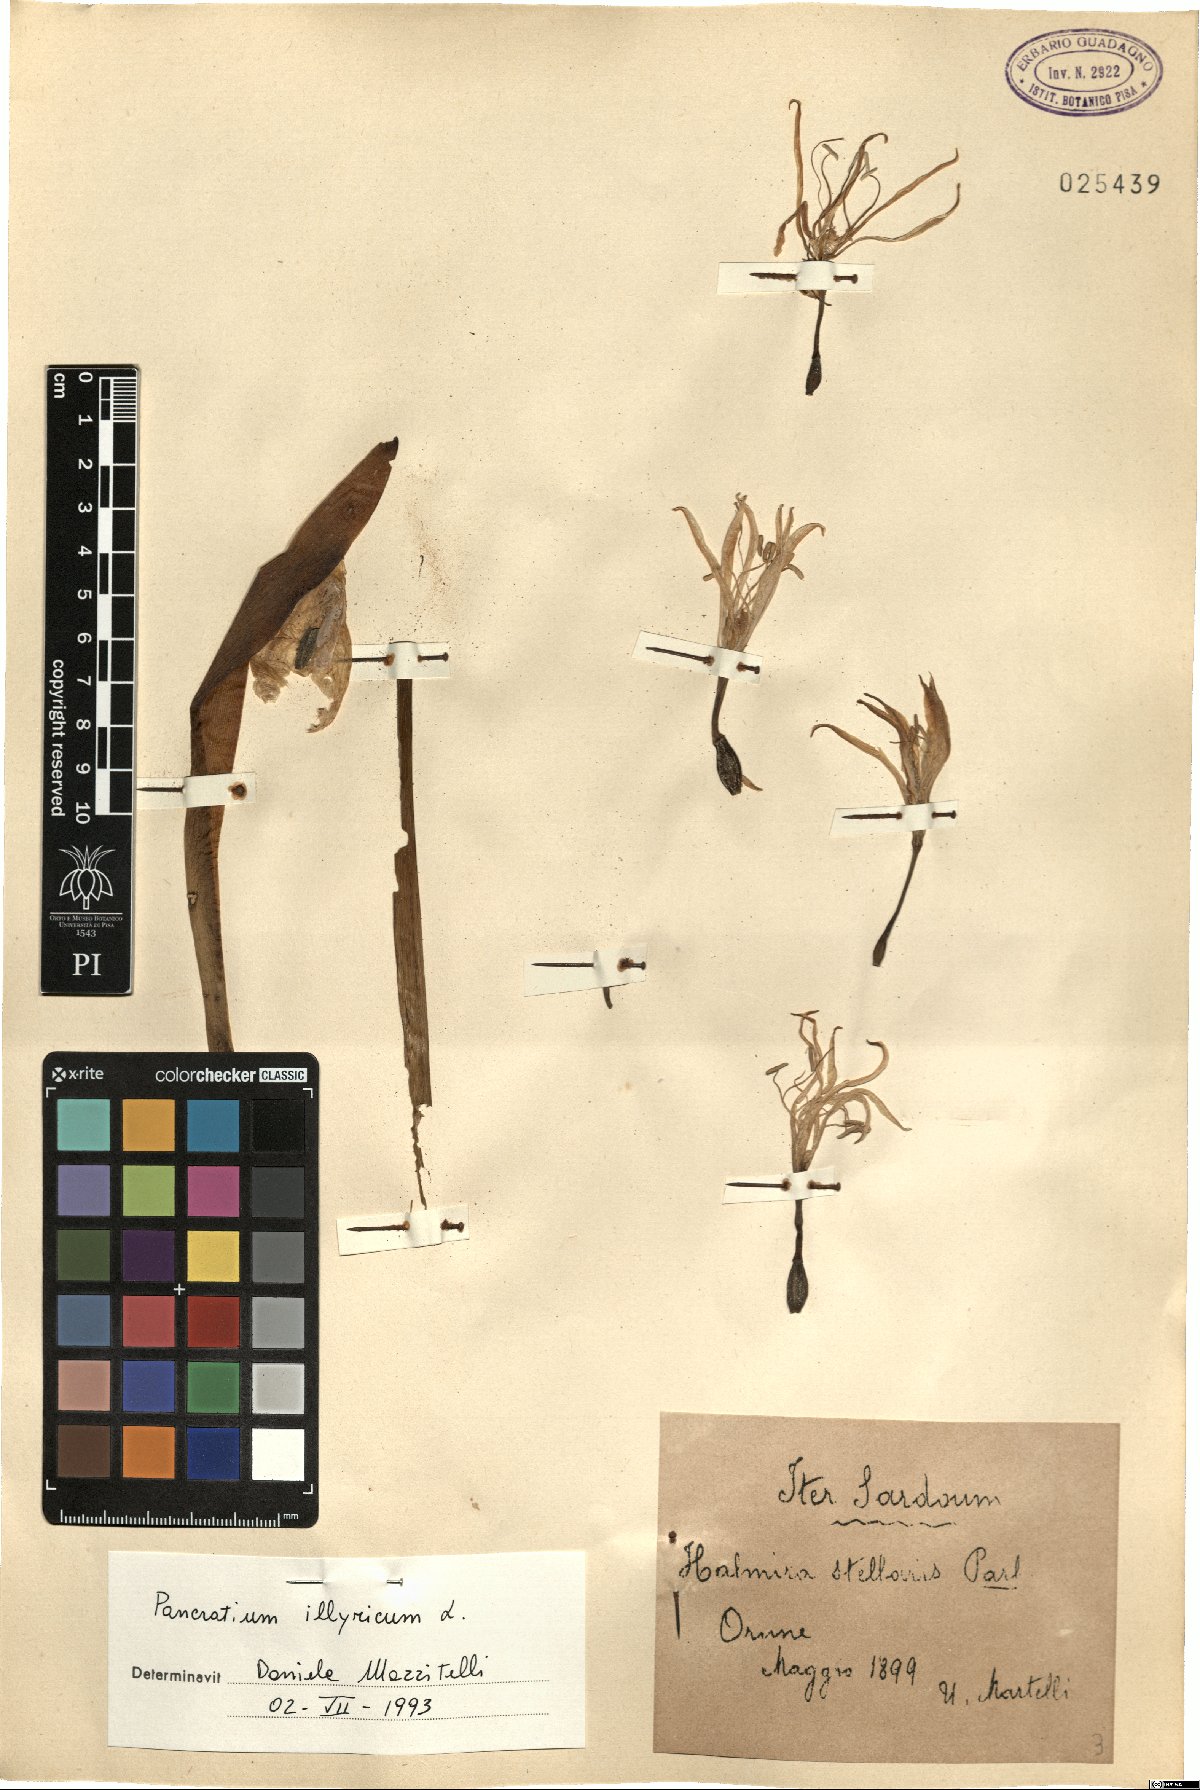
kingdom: Plantae
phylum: Tracheophyta
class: Liliopsida
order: Asparagales
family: Amaryllidaceae
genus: Pancratium
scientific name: Pancratium illyricum
